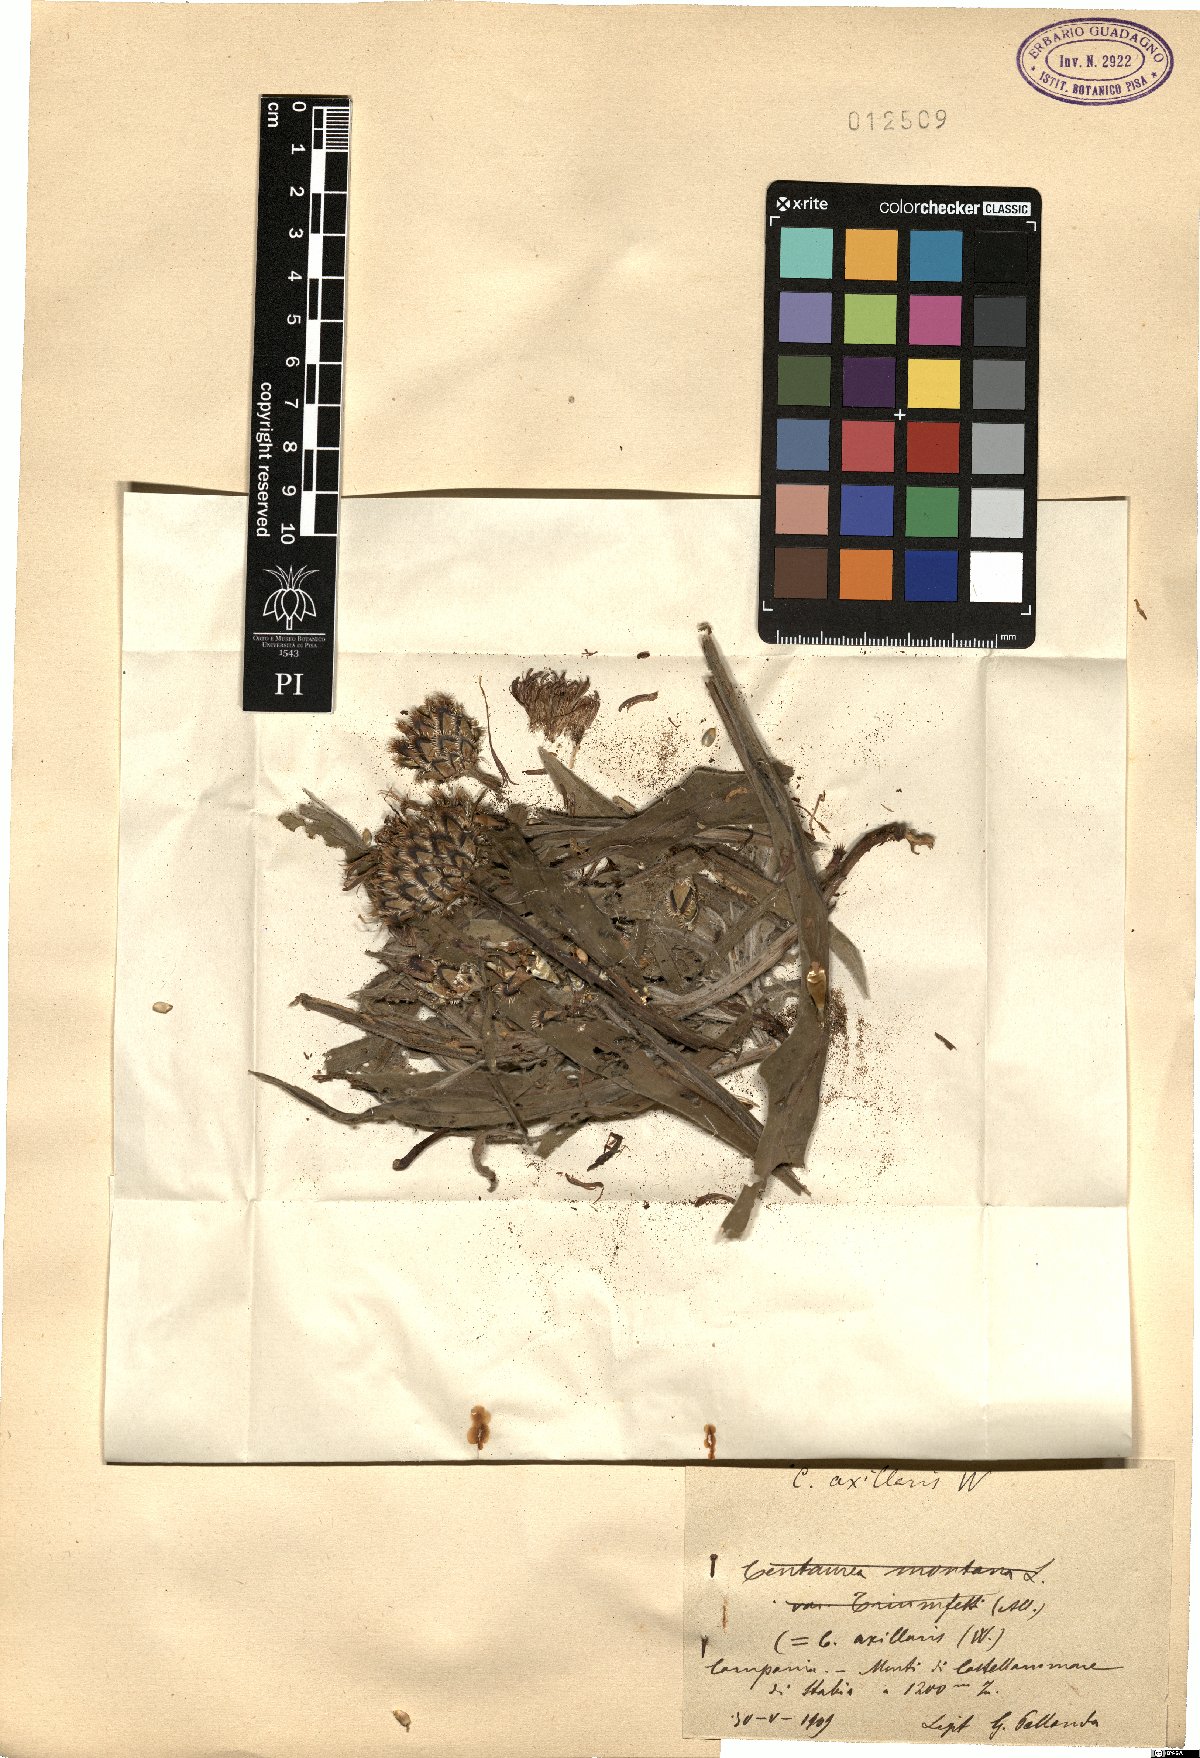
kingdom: Plantae
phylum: Tracheophyta
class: Magnoliopsida
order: Asterales
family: Asteraceae
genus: Centaurea
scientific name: Centaurea triumfettii
